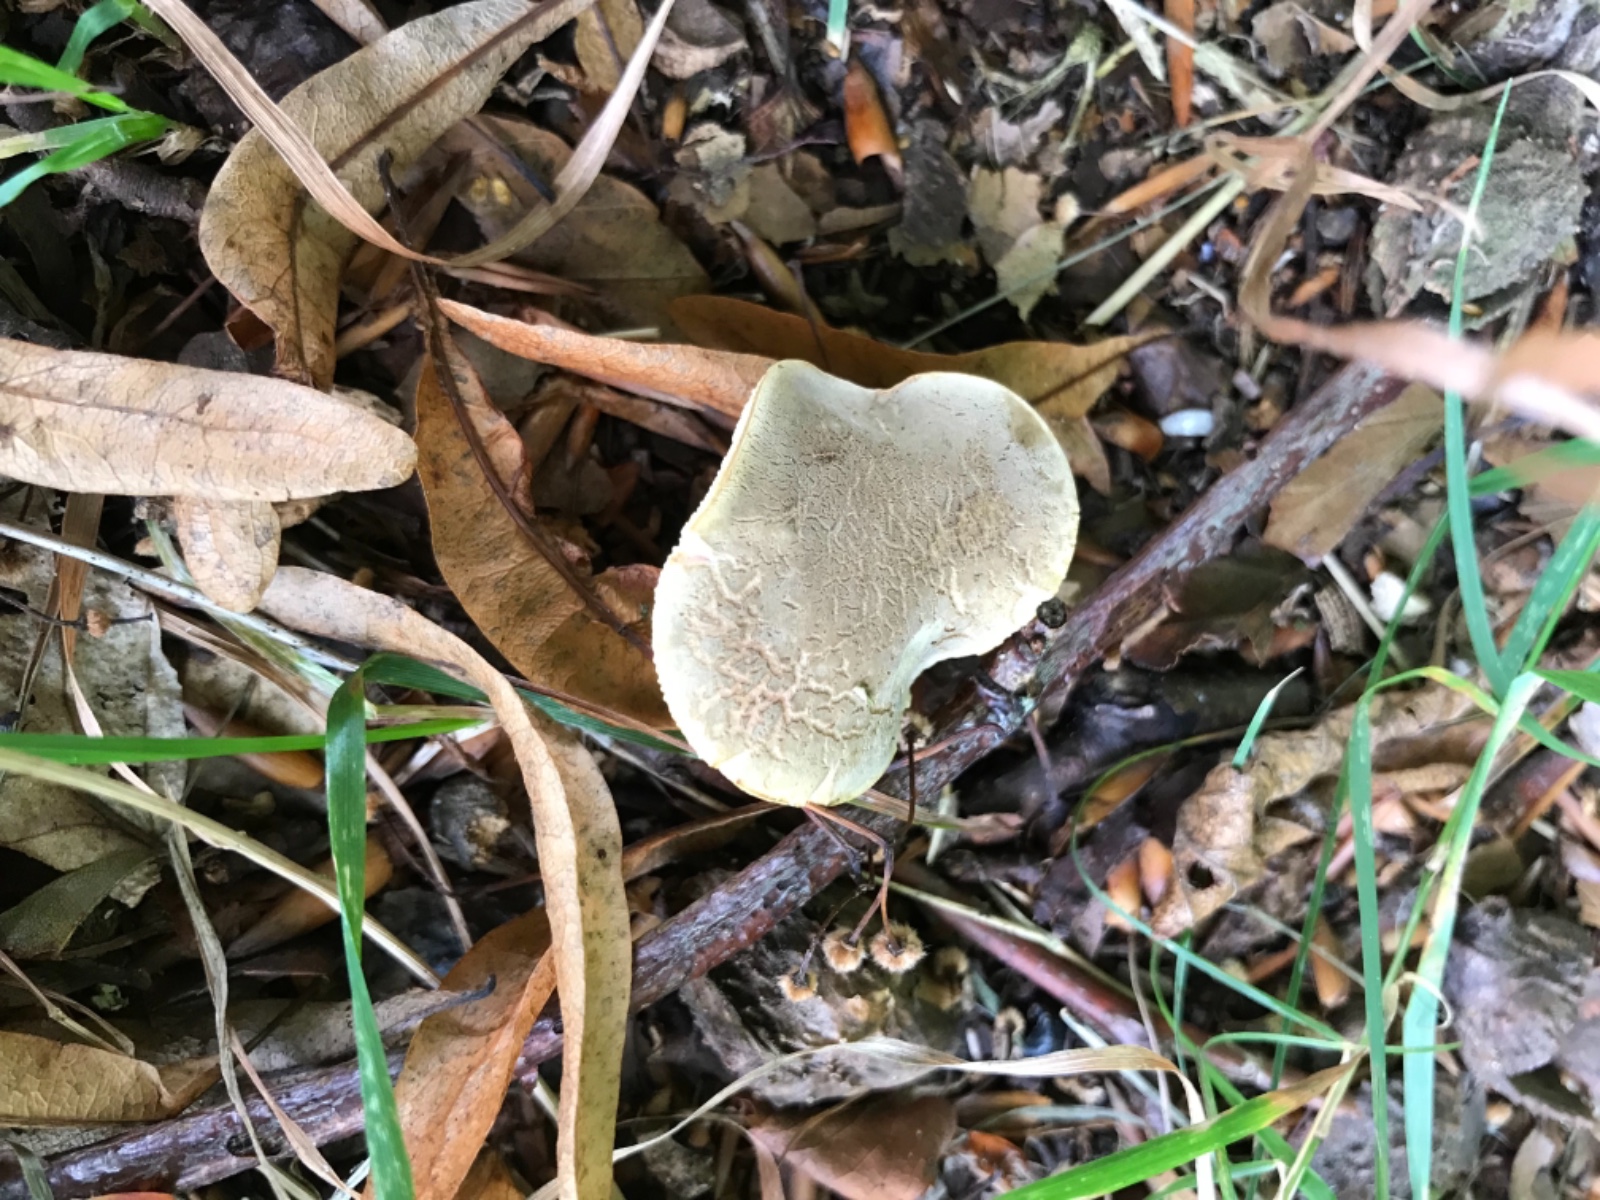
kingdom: Fungi
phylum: Basidiomycota
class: Agaricomycetes
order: Boletales
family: Boletaceae
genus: Xerocomellus
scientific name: Xerocomellus cisalpinus
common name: finsprukken rørhat
